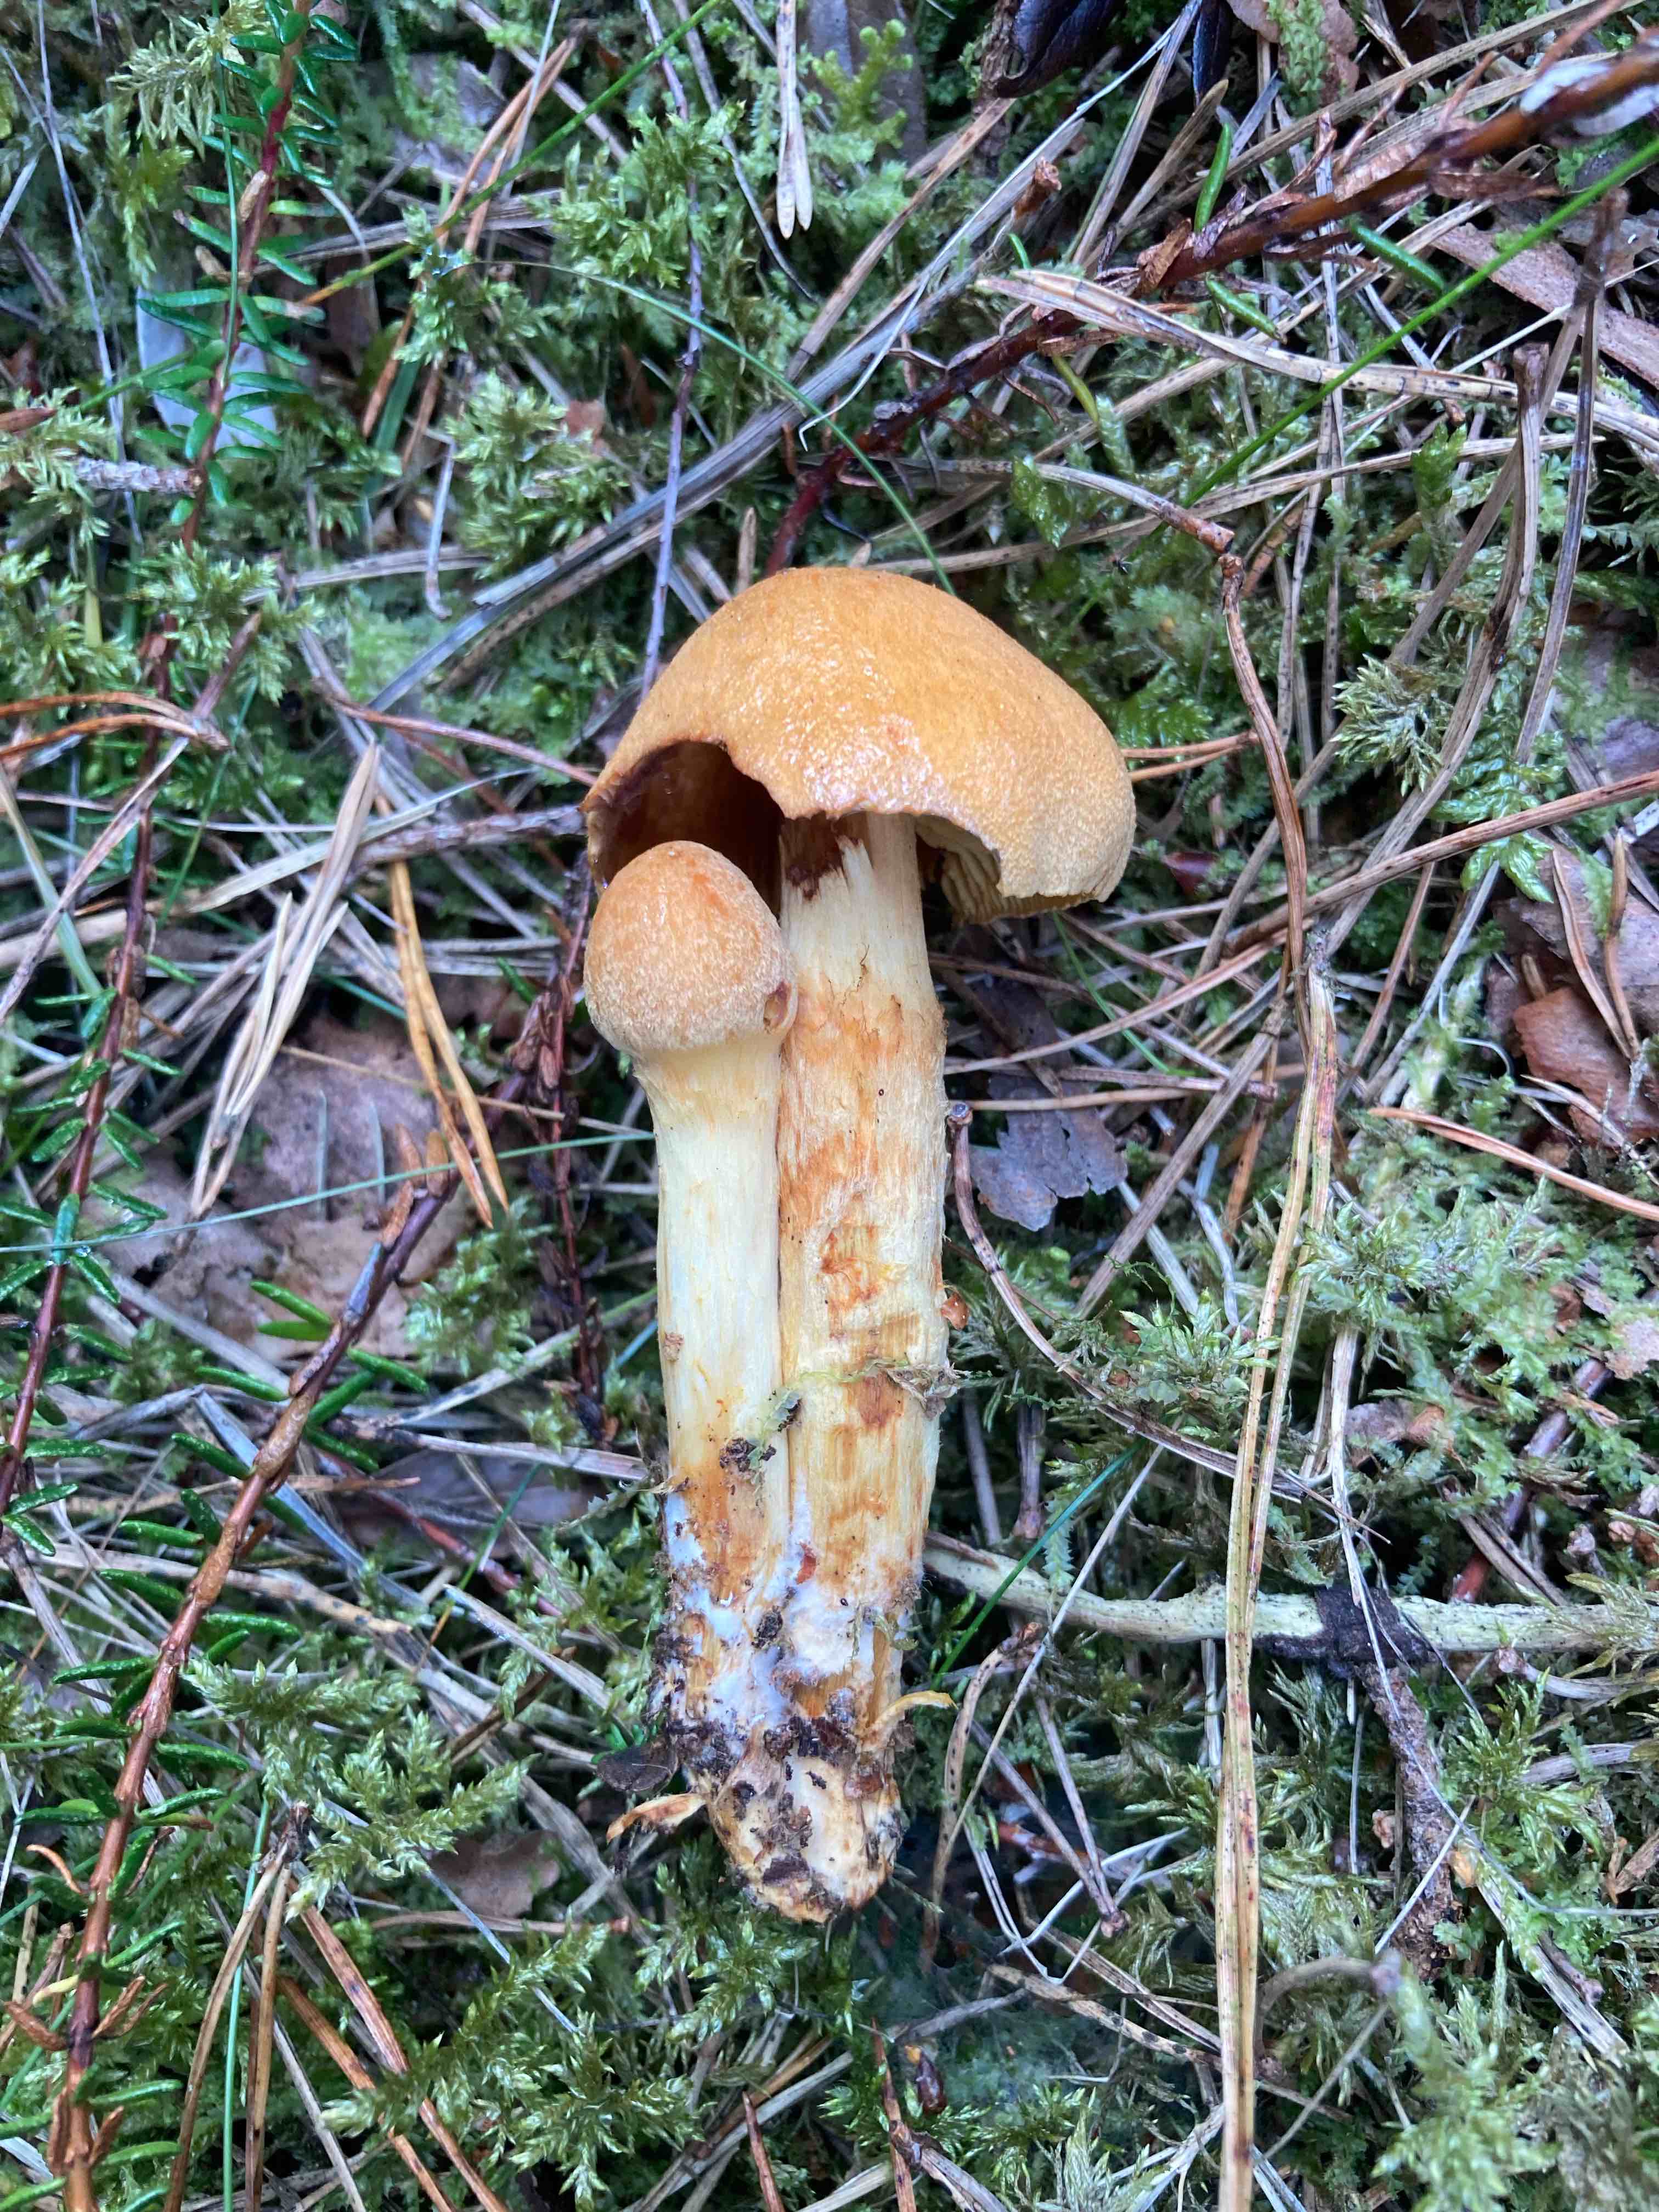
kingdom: Fungi
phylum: Basidiomycota
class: Agaricomycetes
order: Agaricales
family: Cortinariaceae
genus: Aureonarius
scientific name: Aureonarius
